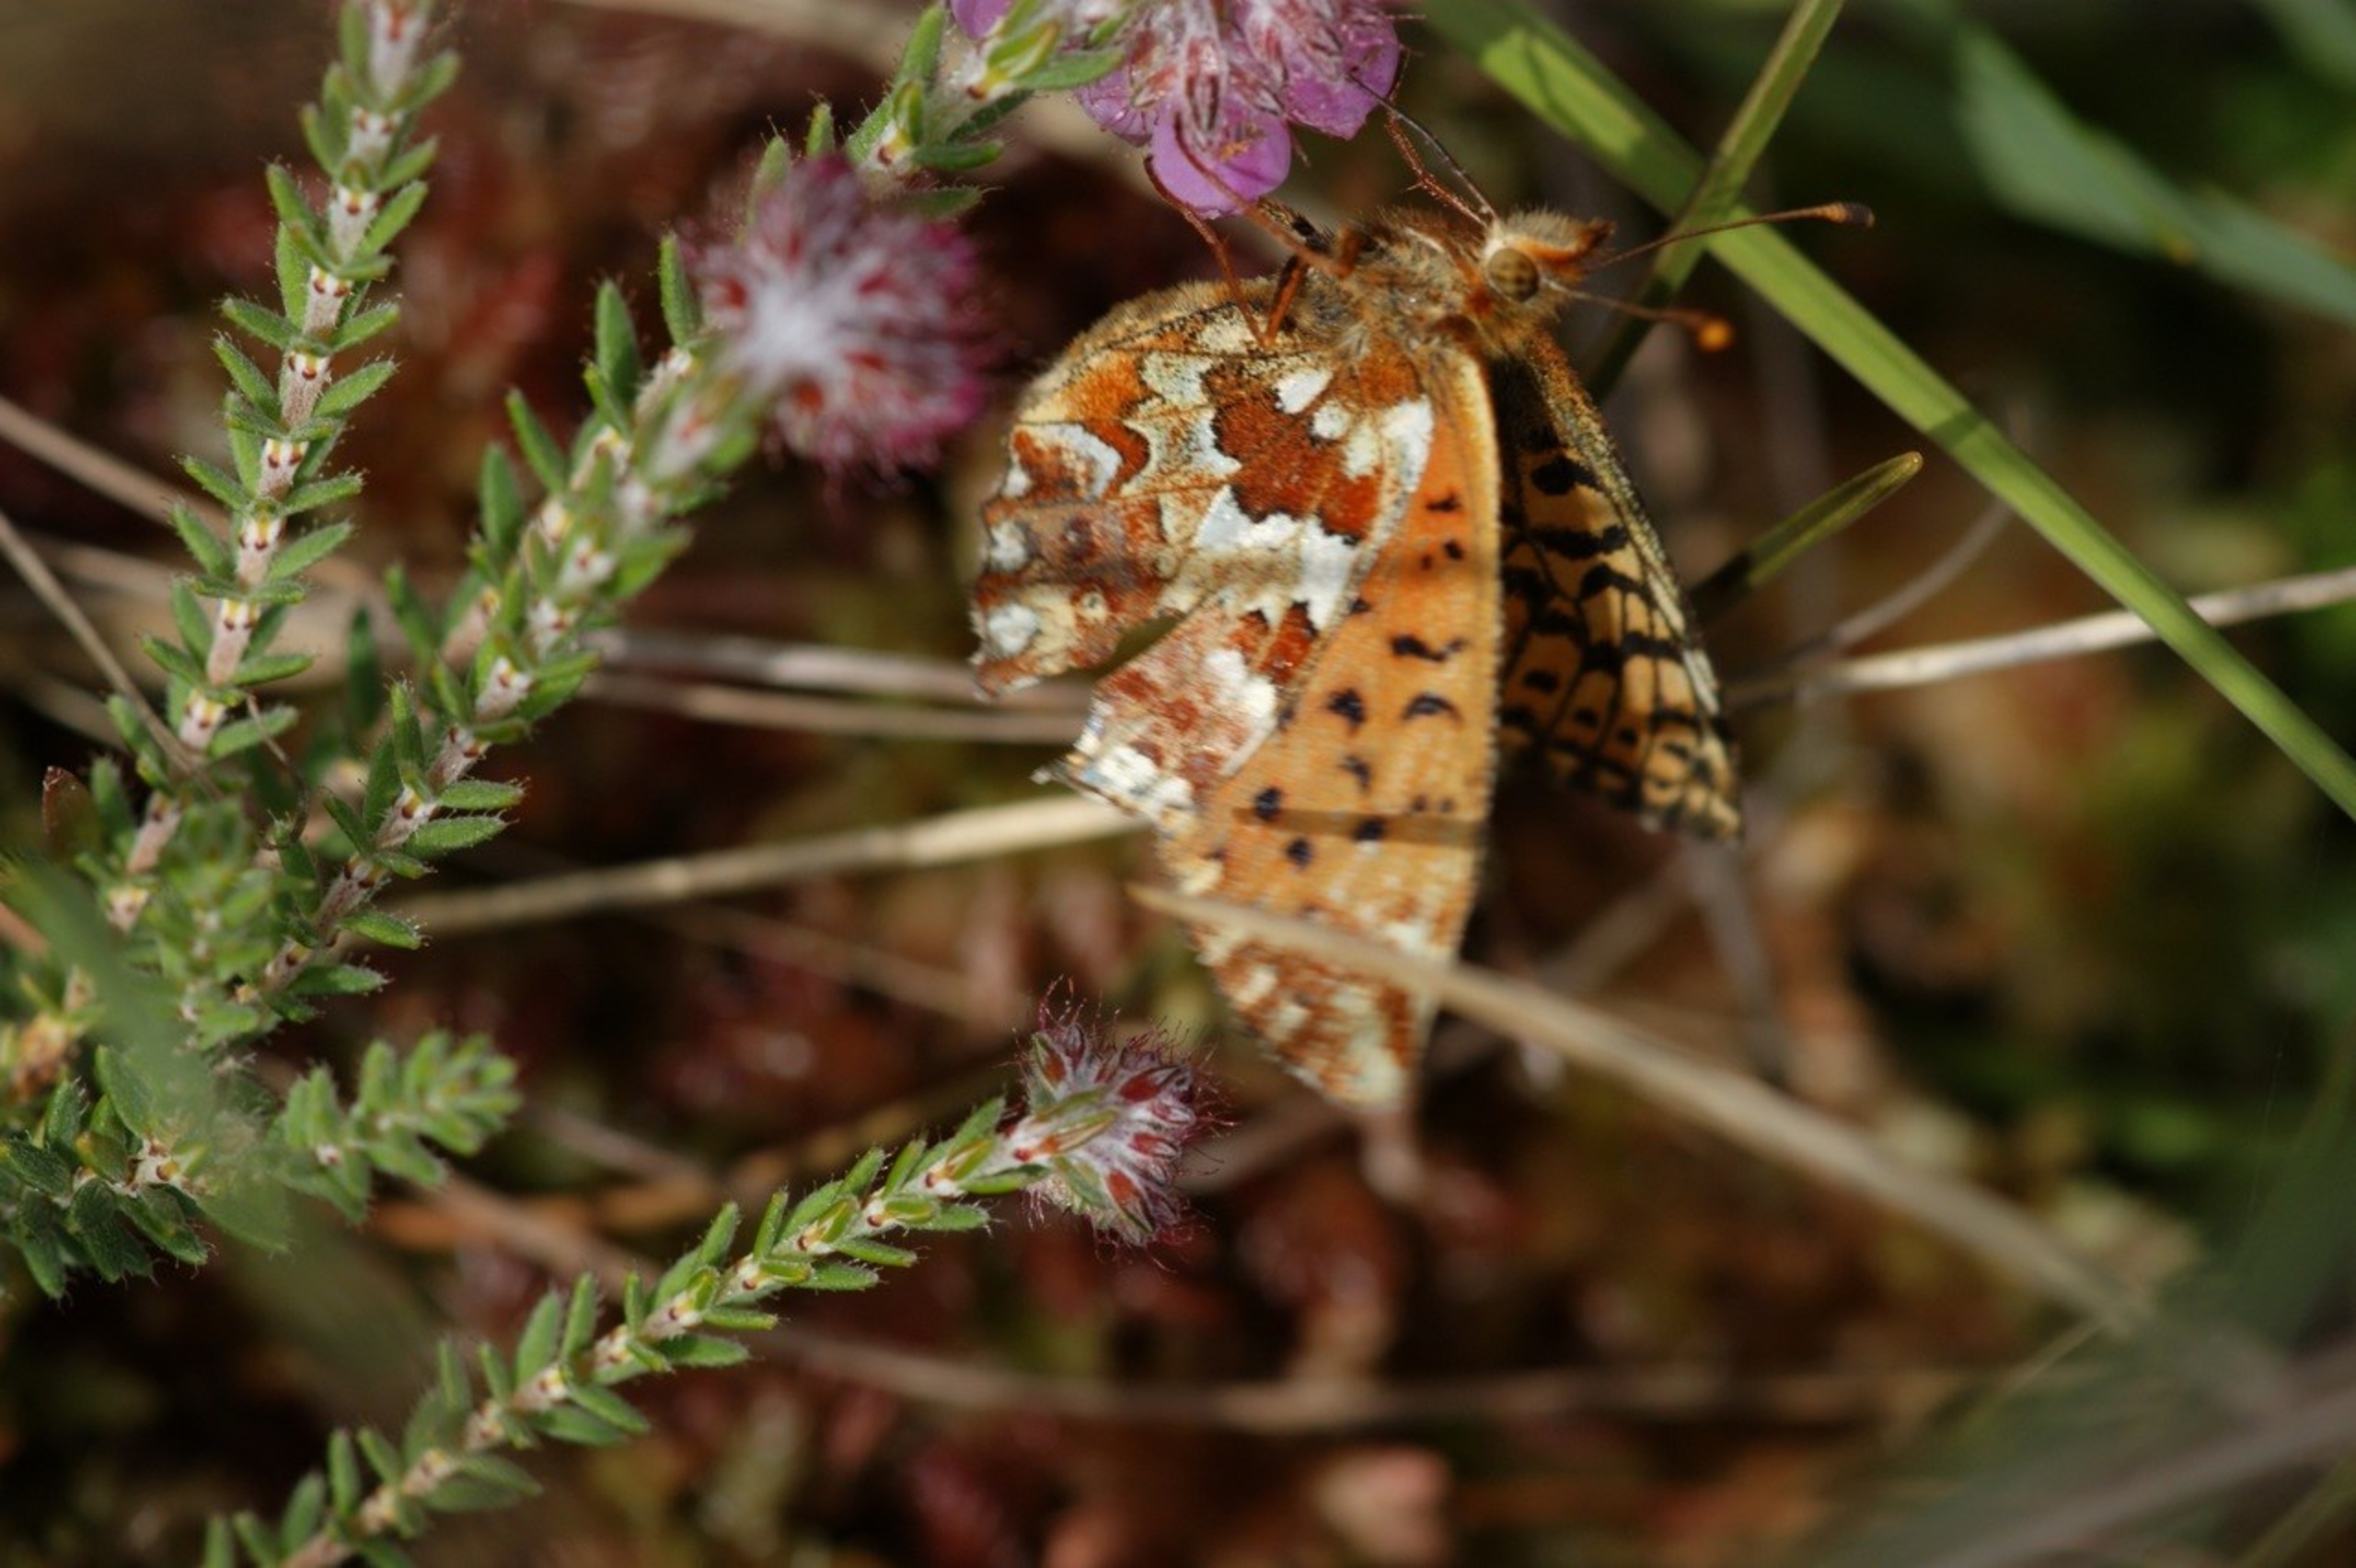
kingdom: Animalia
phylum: Arthropoda
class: Insecta
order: Lepidoptera
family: Nymphalidae
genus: Boloria
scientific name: Boloria aquilonaris
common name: Moseperlemorsommerfugl
